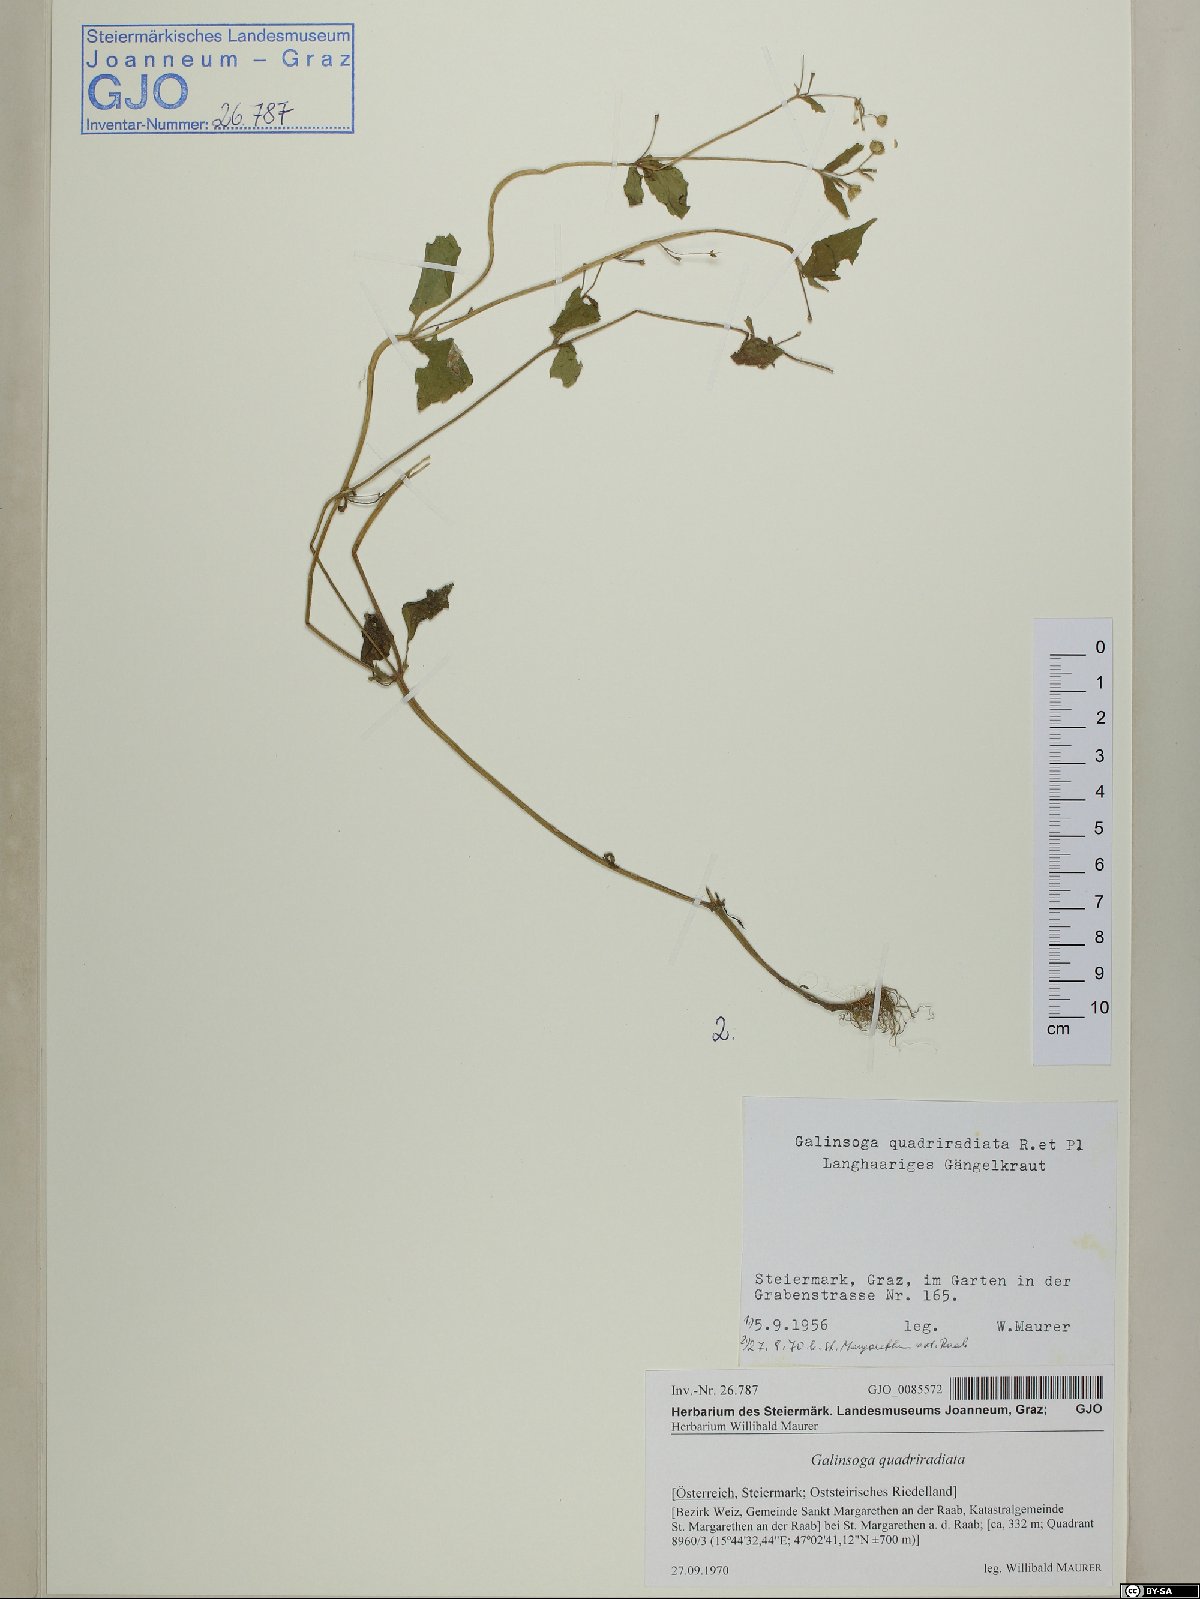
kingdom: Plantae
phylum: Tracheophyta
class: Magnoliopsida
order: Asterales
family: Asteraceae
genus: Galinsoga
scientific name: Galinsoga quadriradiata
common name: Shaggy soldier
